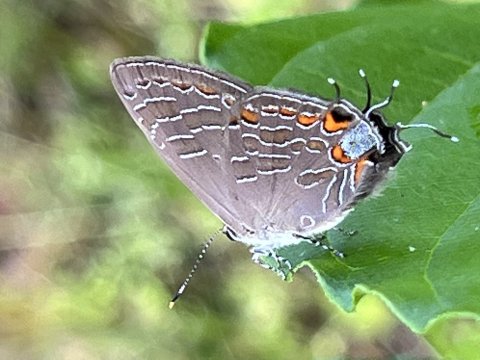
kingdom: Animalia
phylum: Arthropoda
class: Insecta
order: Lepidoptera
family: Lycaenidae
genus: Satyrium
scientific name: Satyrium liparops
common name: Striped Hairstreak
